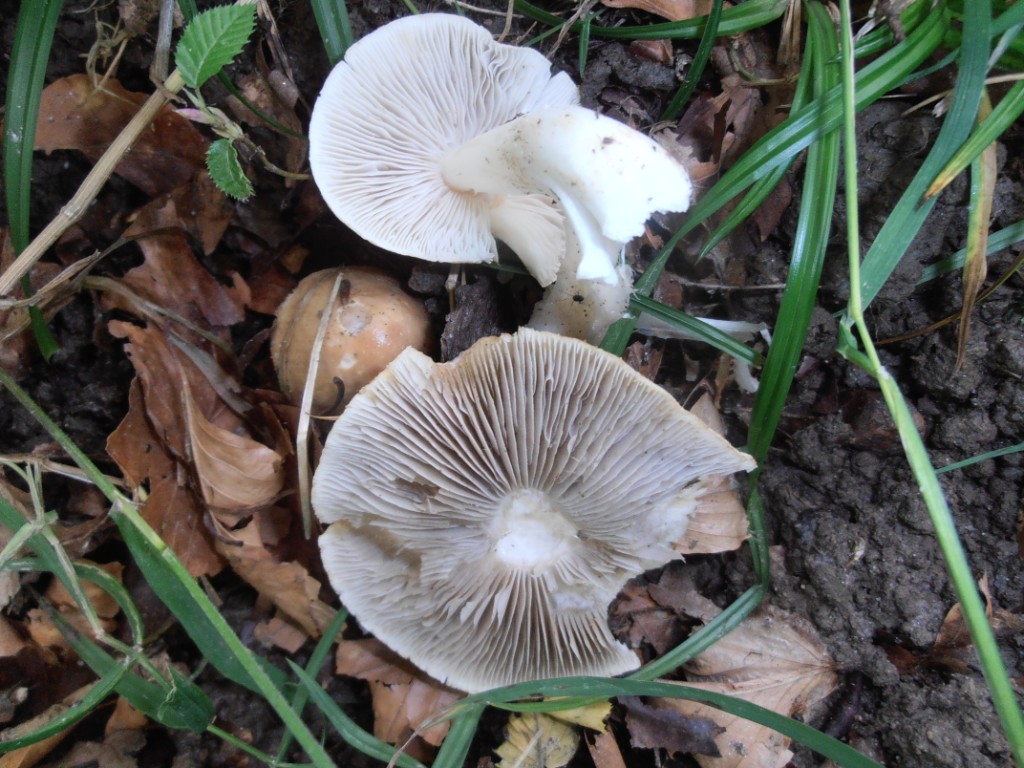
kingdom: Fungi
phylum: Basidiomycota
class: Agaricomycetes
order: Agaricales
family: Inocybaceae
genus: Inocybe
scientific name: Inocybe sindonia
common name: bleg trævlhat
